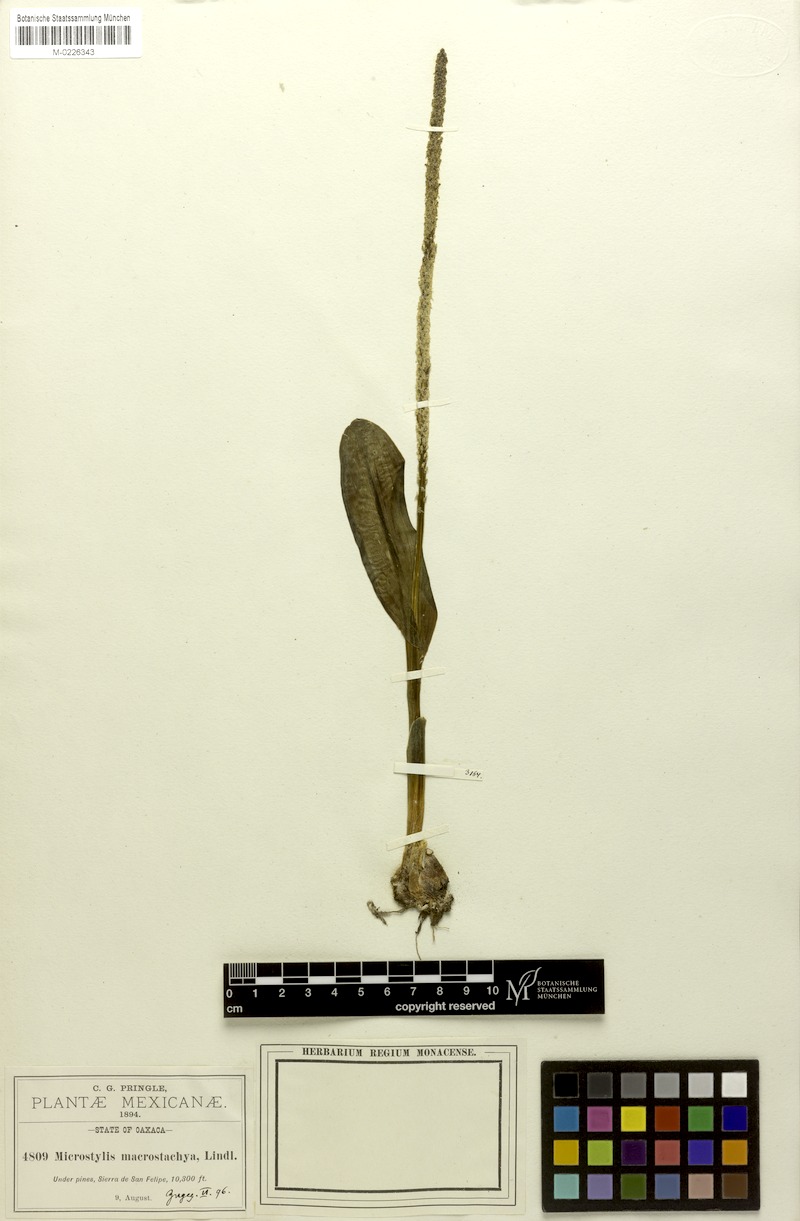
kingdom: Plantae
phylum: Tracheophyta
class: Liliopsida
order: Asparagales
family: Orchidaceae
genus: Malaxis
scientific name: Malaxis macrostachya
